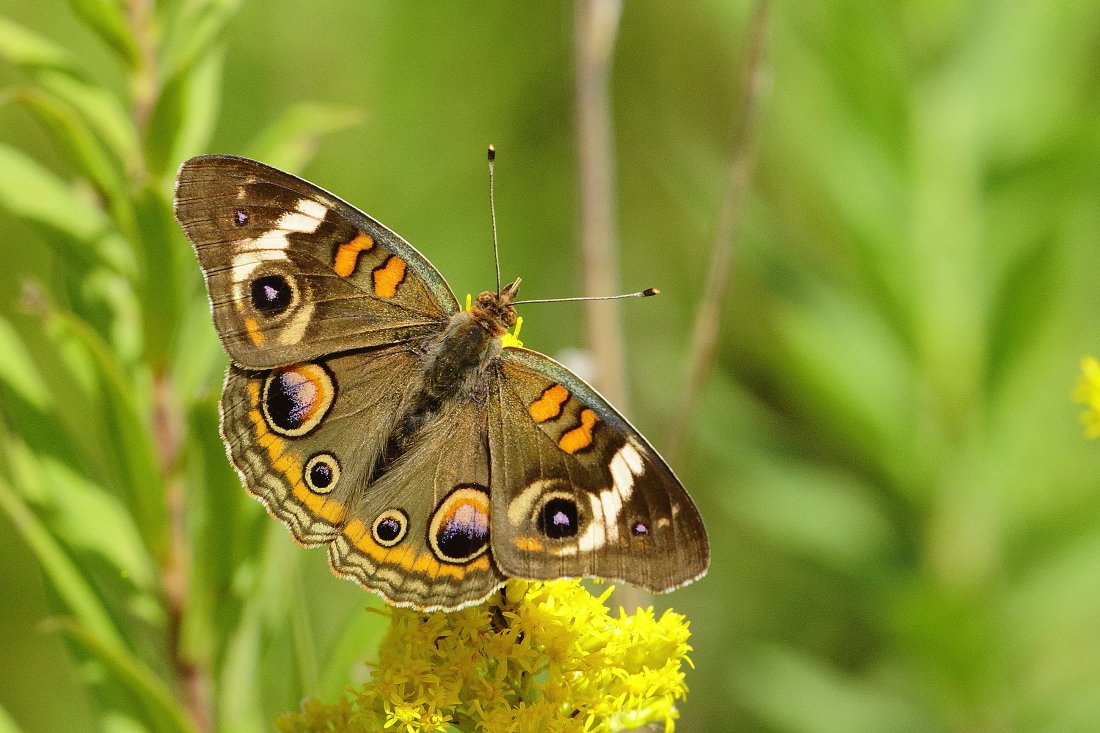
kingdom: Animalia
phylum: Arthropoda
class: Insecta
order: Lepidoptera
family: Nymphalidae
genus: Junonia
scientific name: Junonia coenia
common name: Common Buckeye
